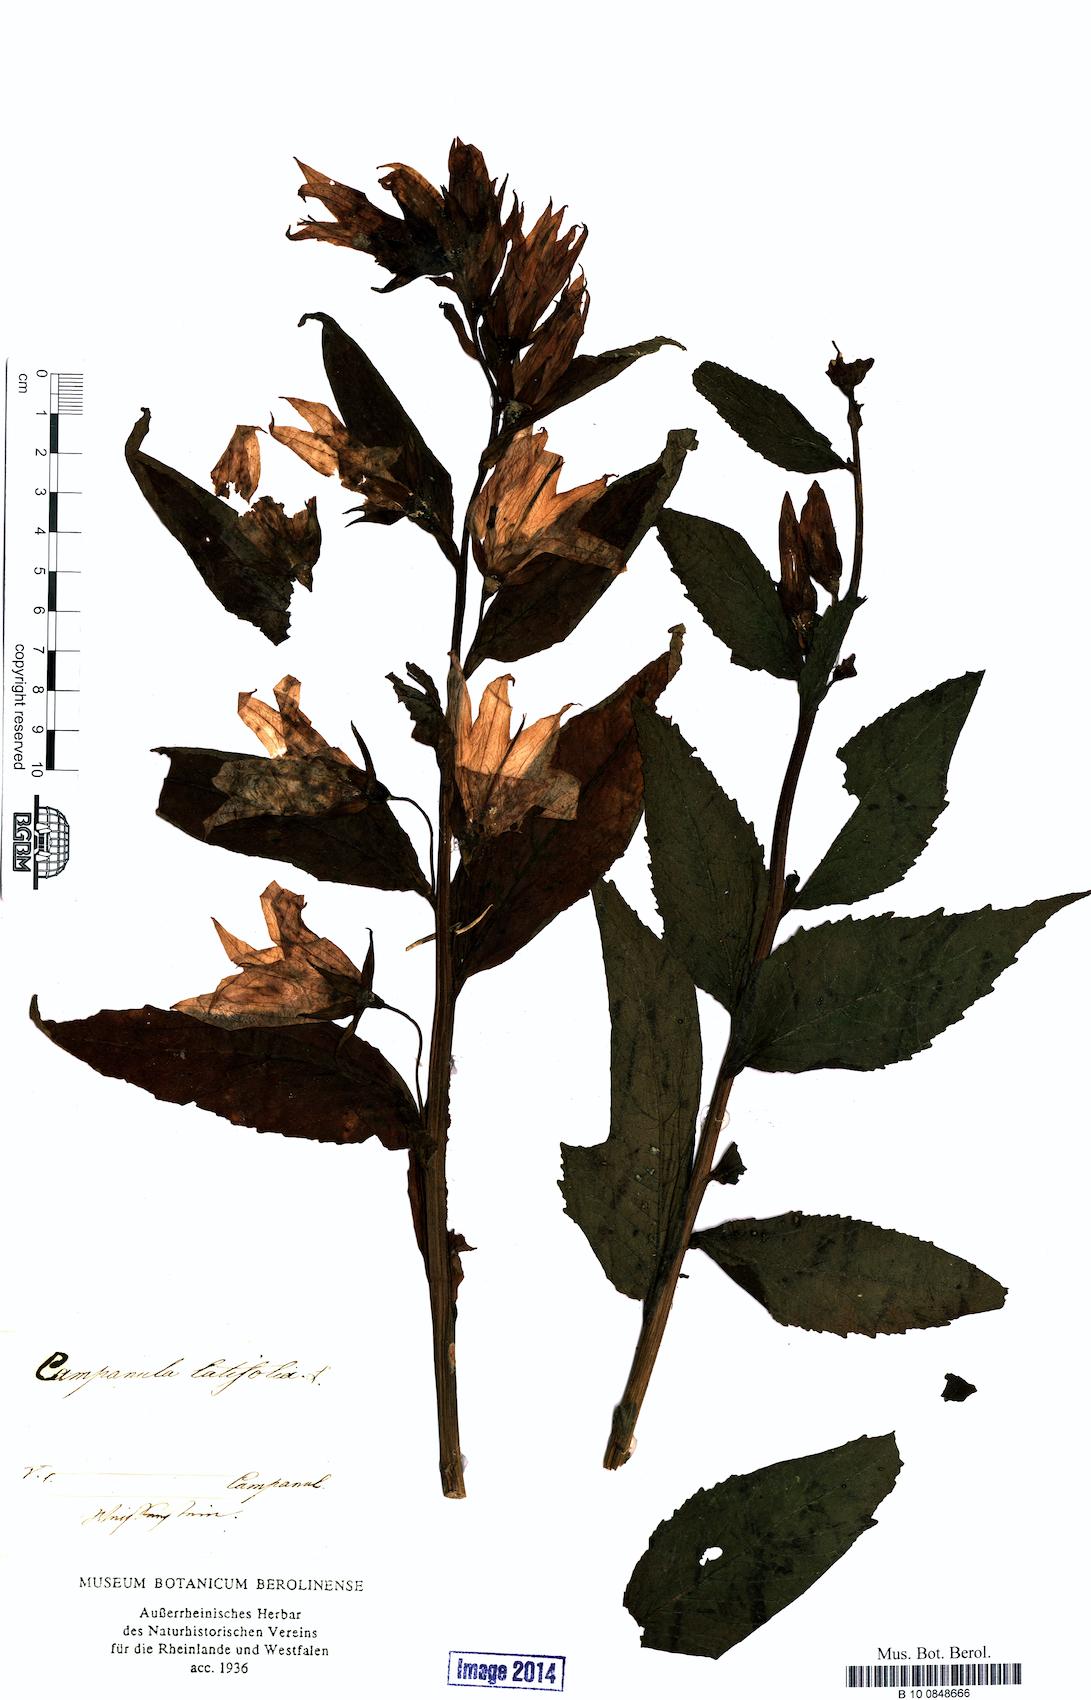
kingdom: Plantae
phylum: Tracheophyta
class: Magnoliopsida
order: Asterales
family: Campanulaceae
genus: Campanula
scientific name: Campanula latifolia
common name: Giant bellflower
